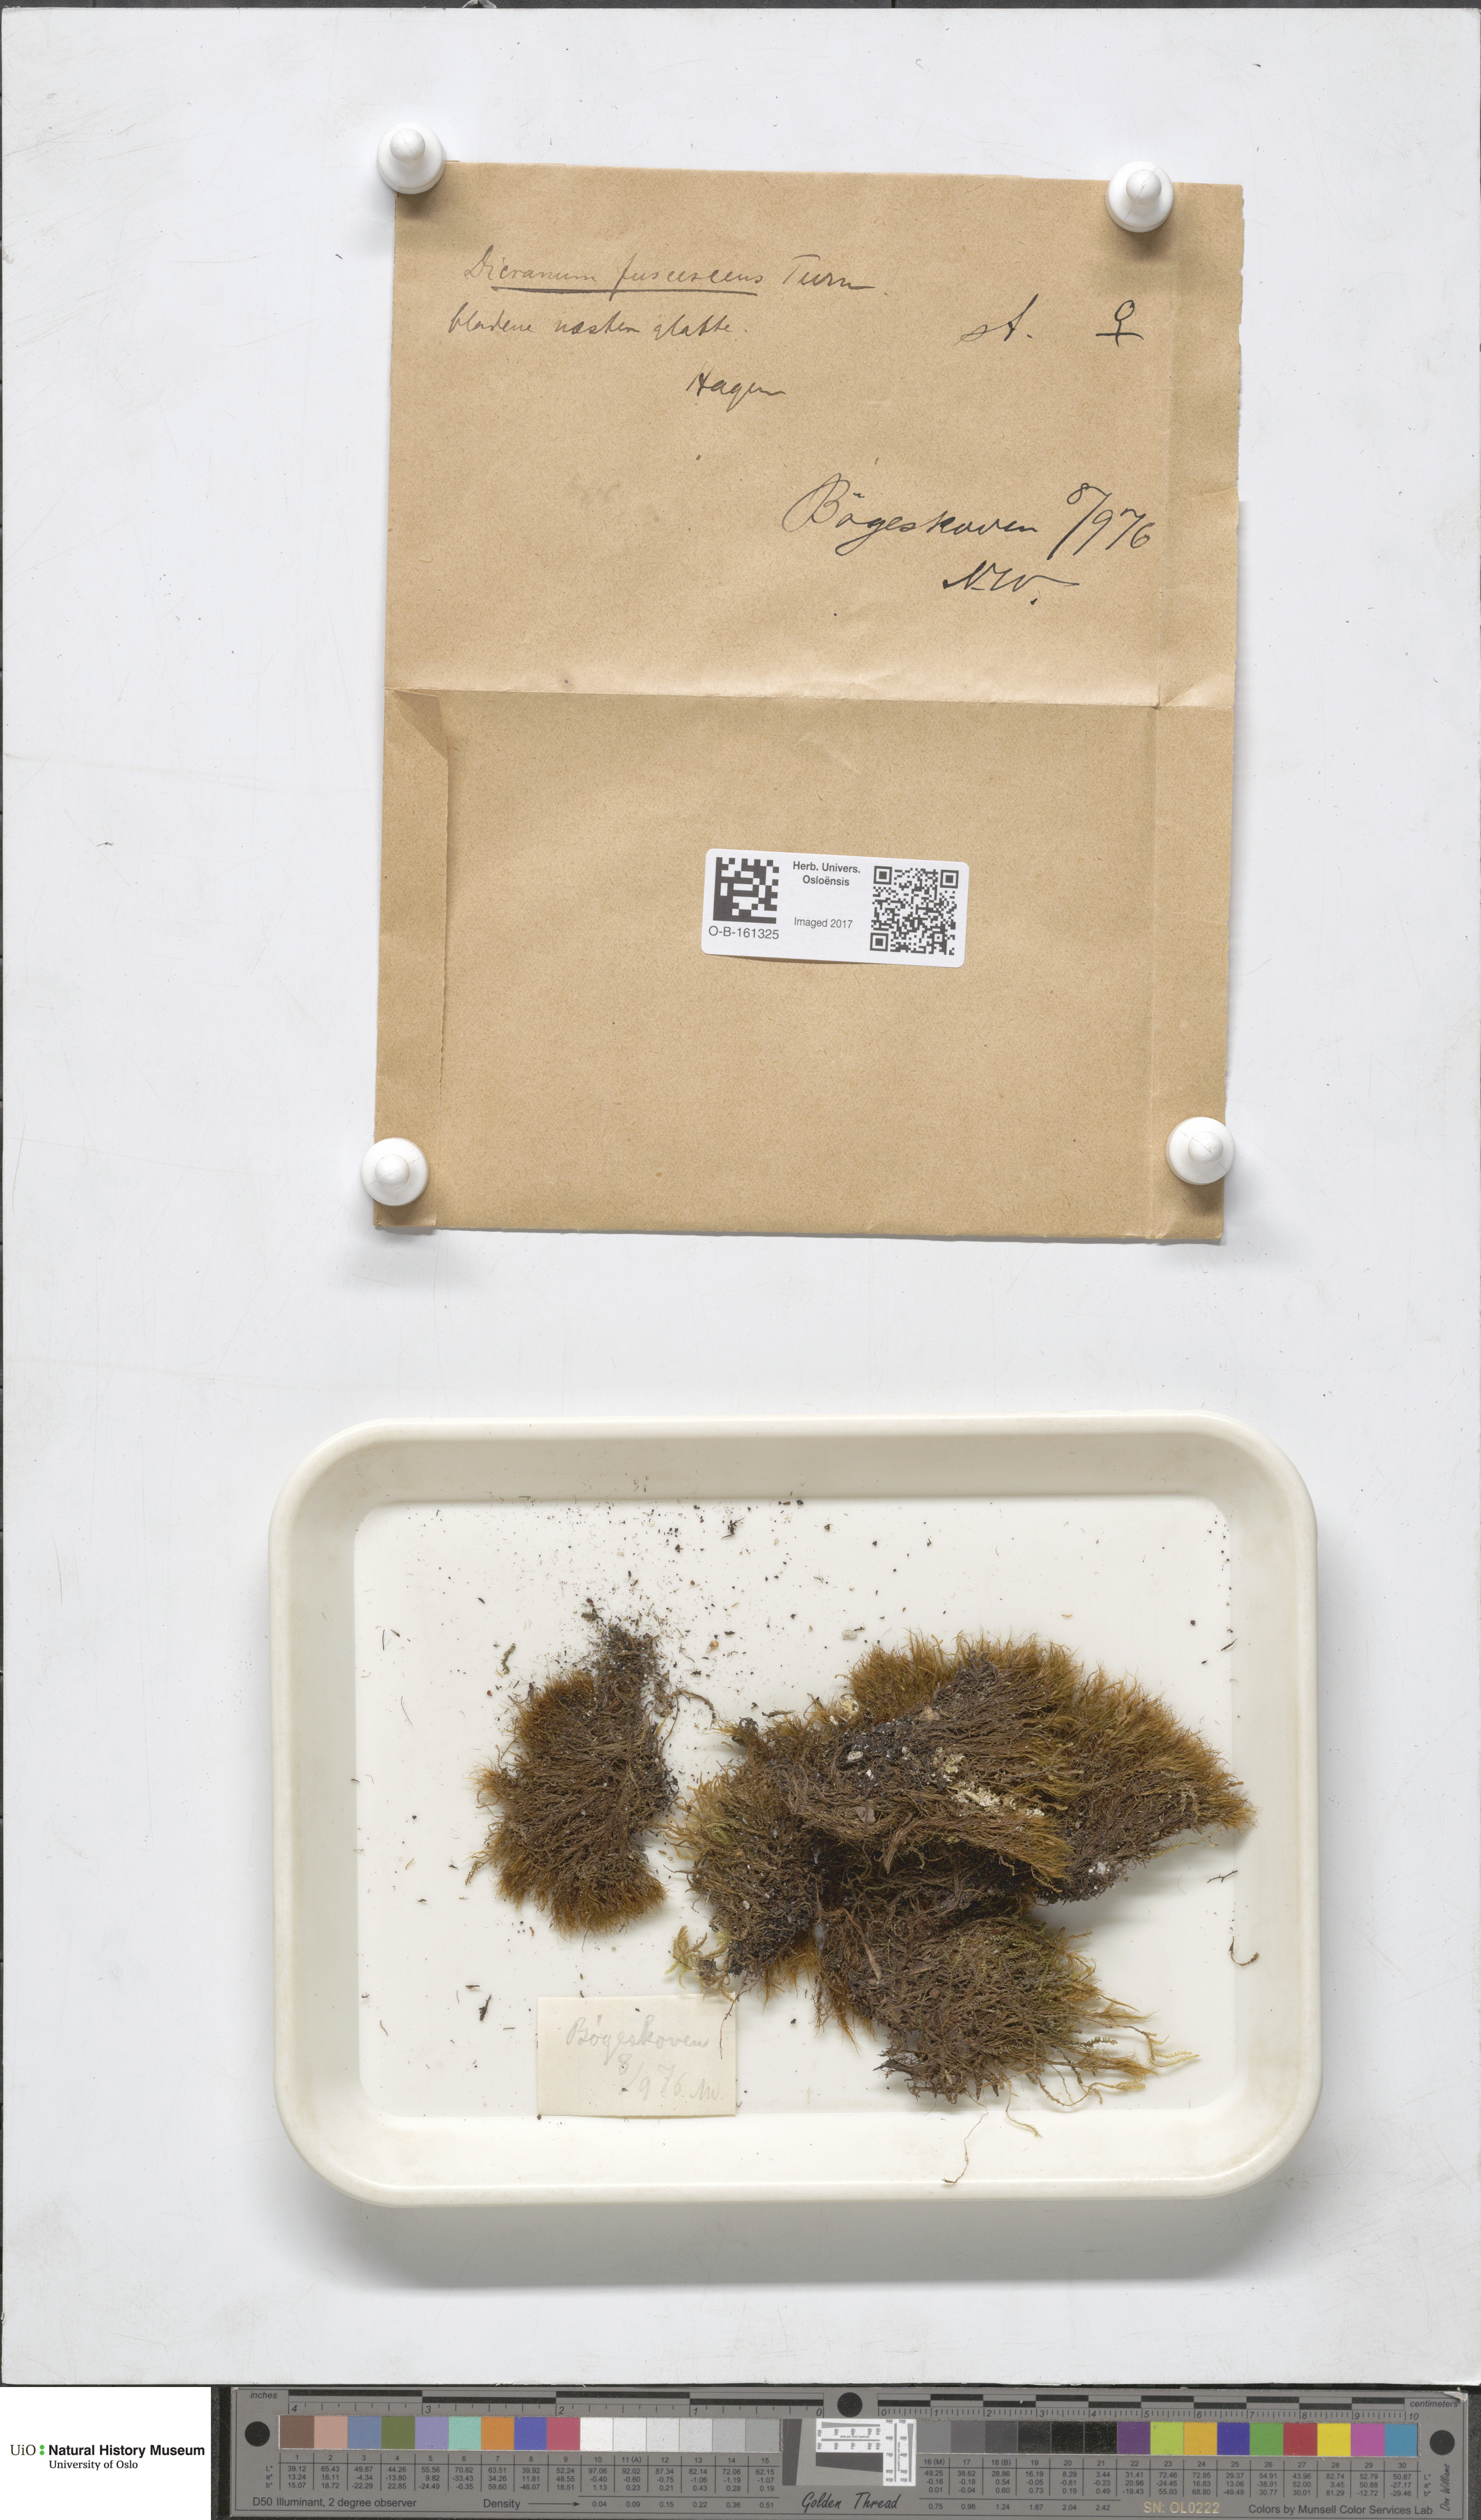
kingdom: Plantae
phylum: Bryophyta
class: Bryopsida
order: Dicranales
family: Dicranaceae
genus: Dicranum
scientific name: Dicranum fuscescens
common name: Curly heron's-bill moss
